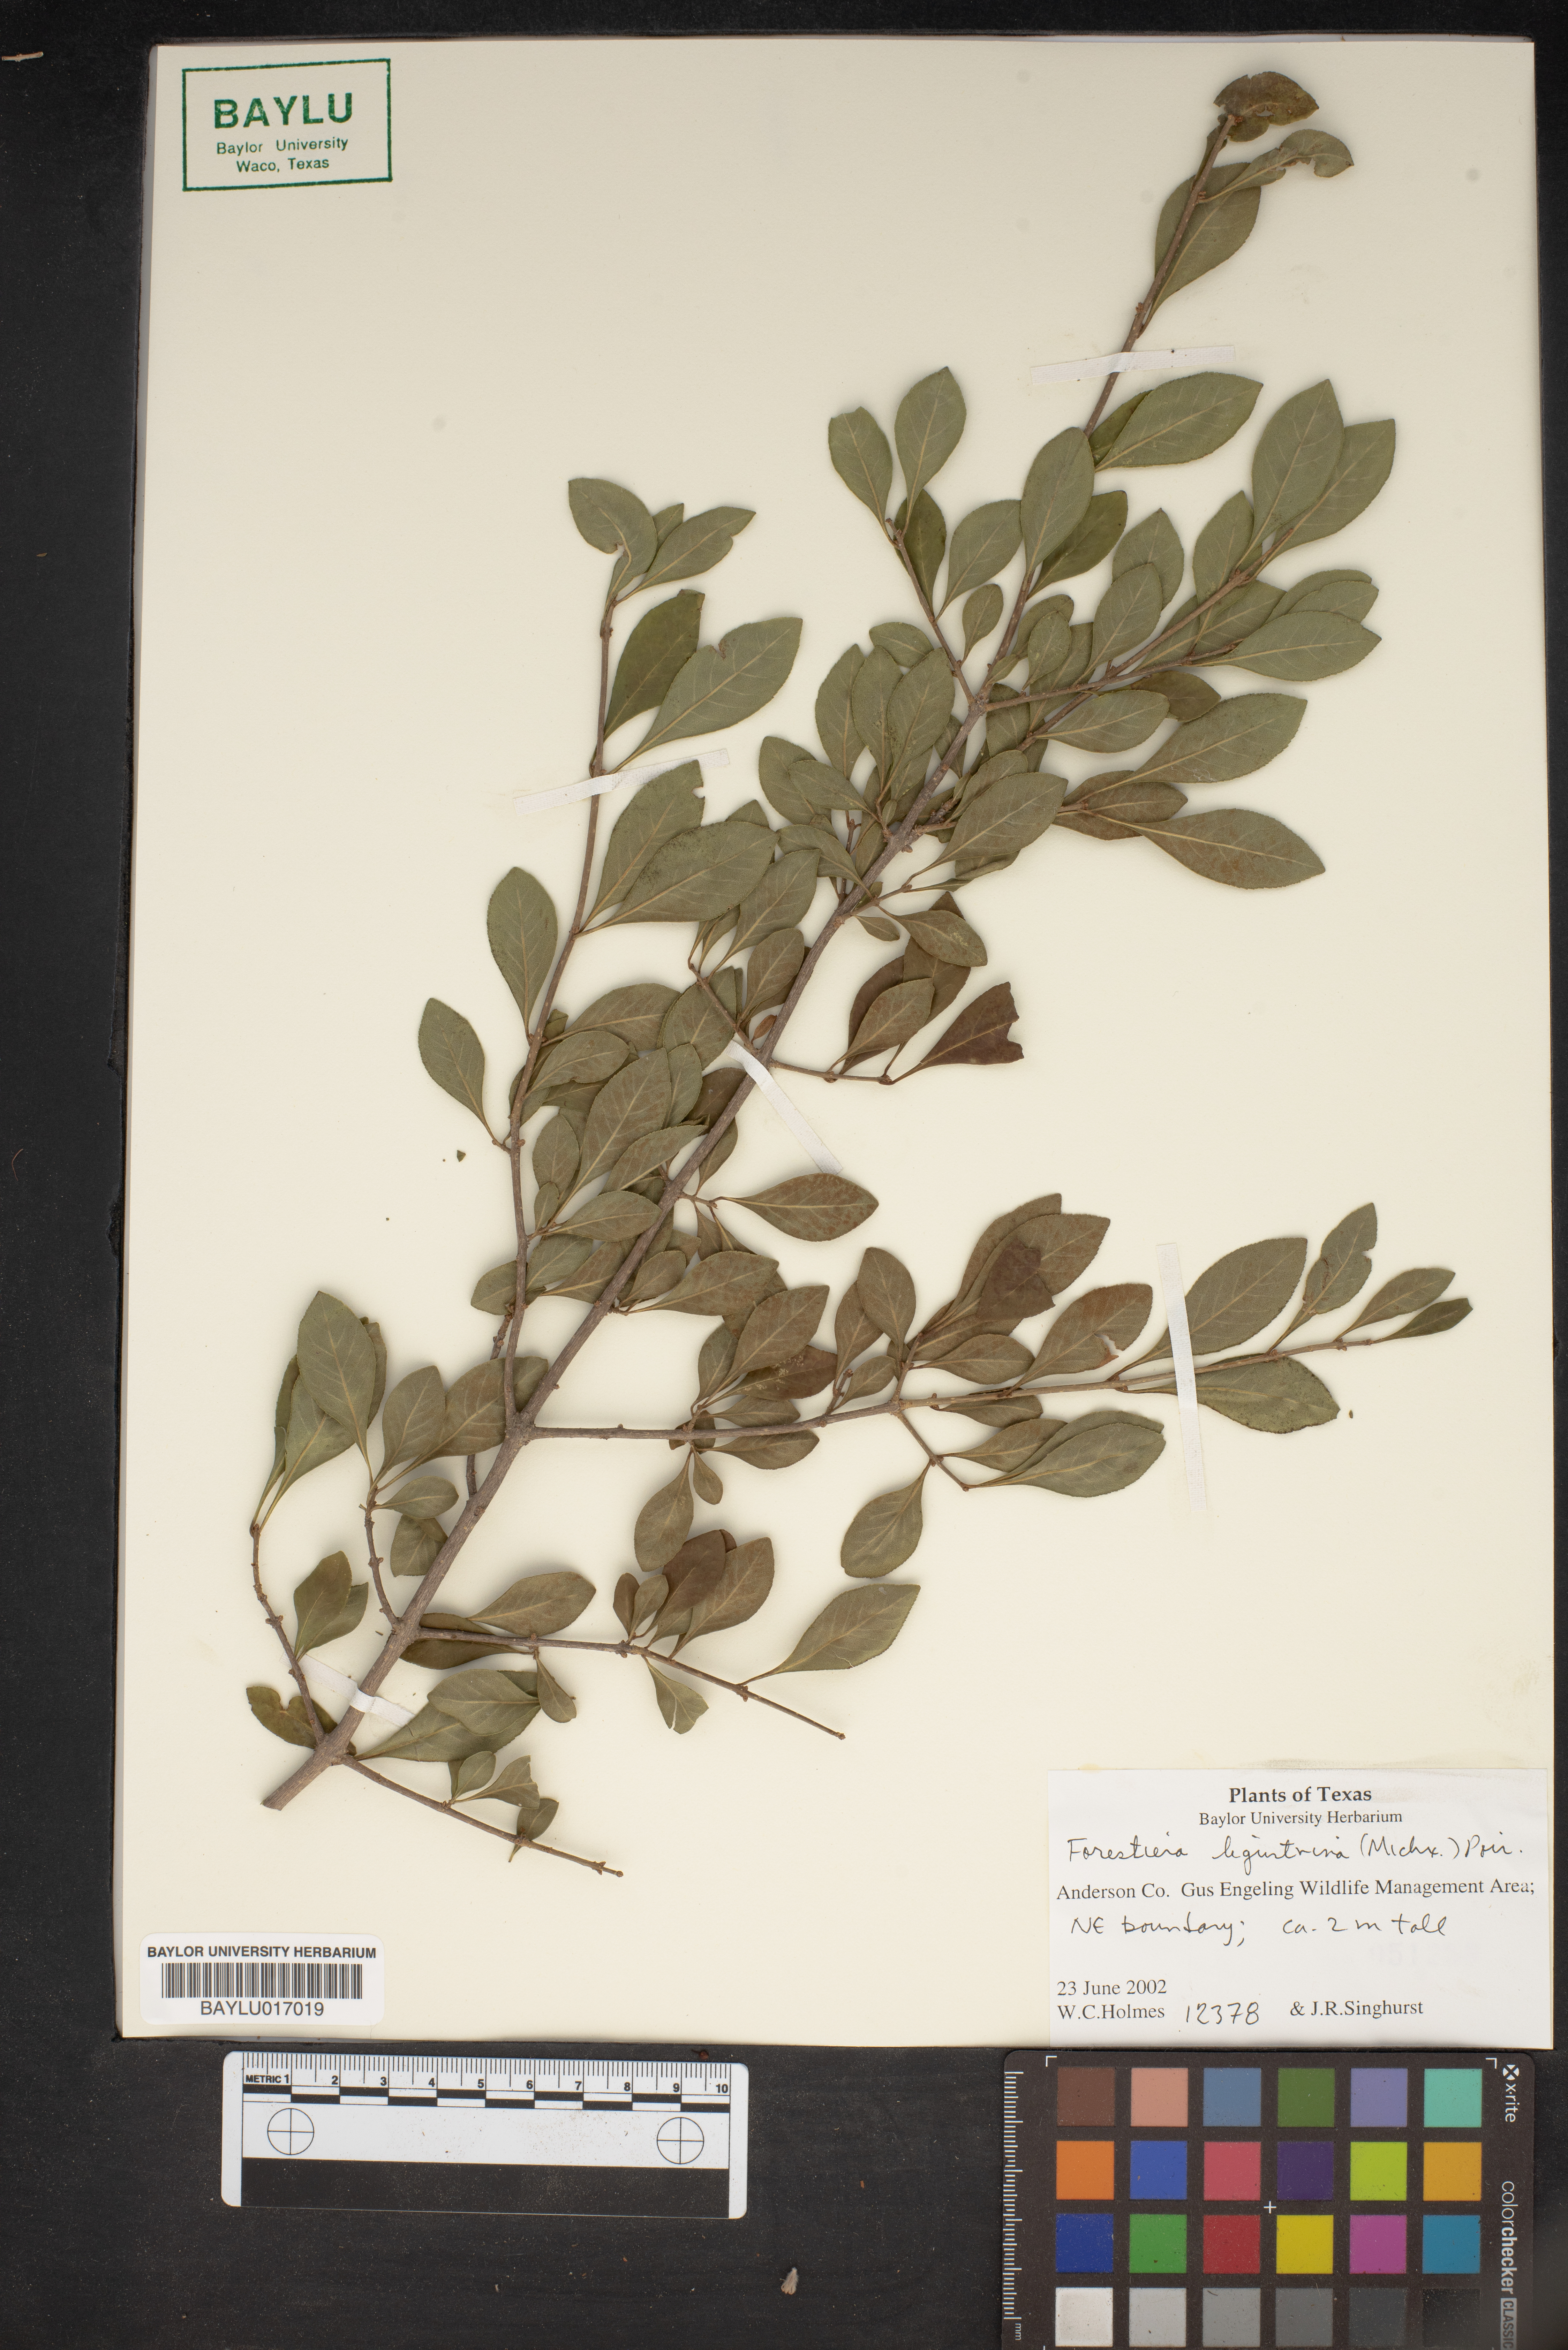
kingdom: Plantae
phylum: Tracheophyta
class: Magnoliopsida
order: Lamiales
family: Oleaceae
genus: Forestiera
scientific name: Forestiera ligustrina
